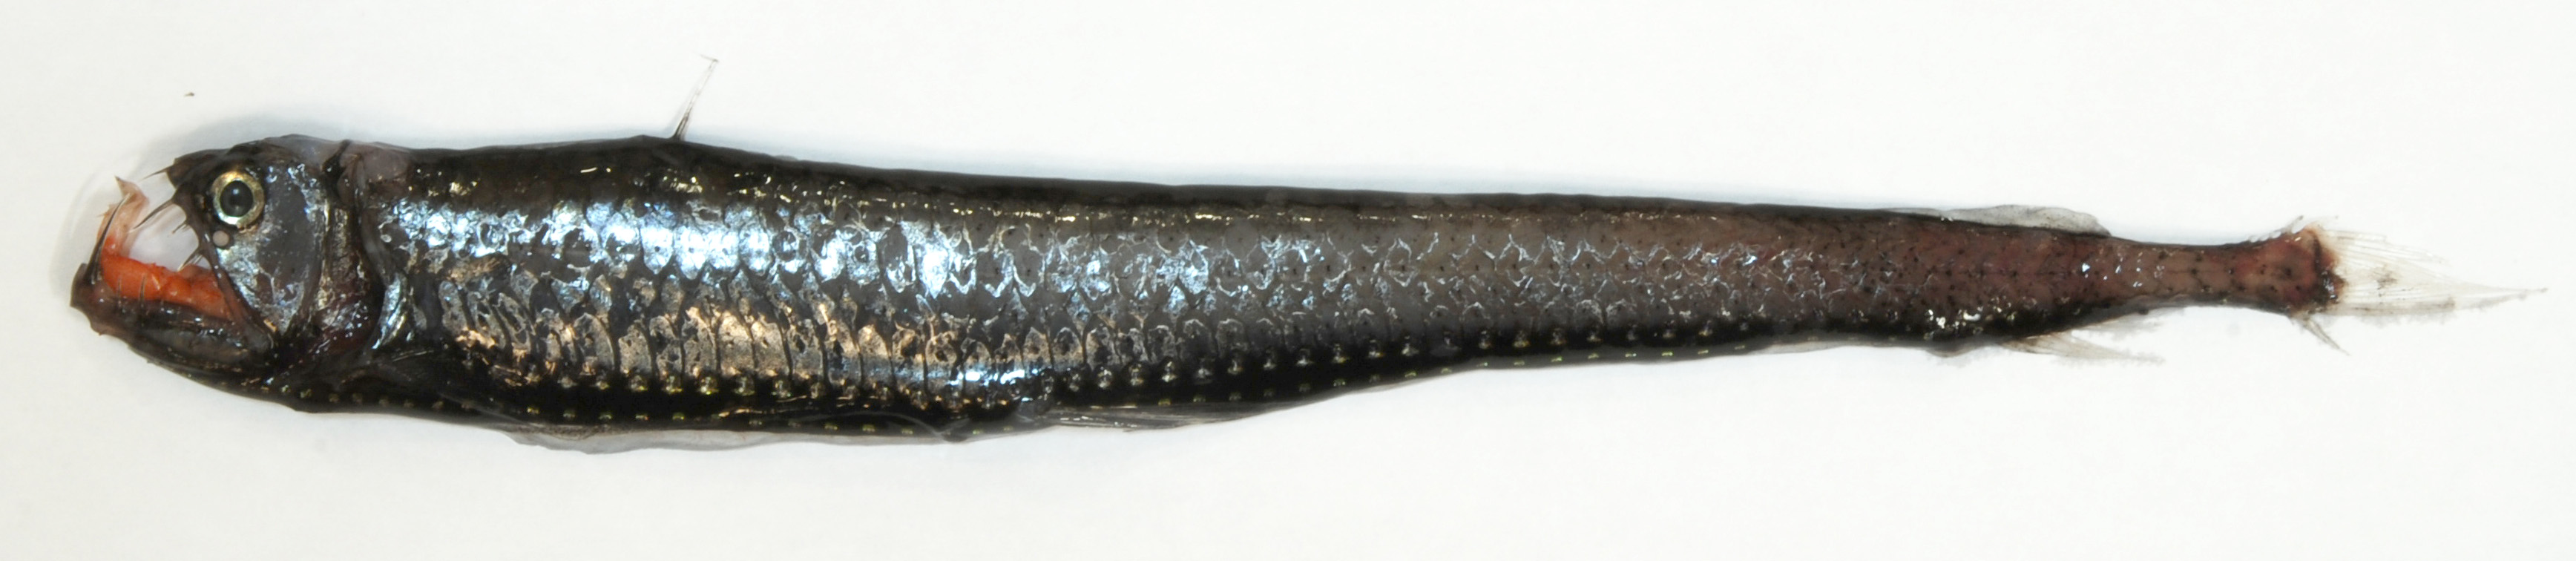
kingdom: Animalia
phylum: Chordata
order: Stomiiformes
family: Stomiidae
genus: Chauliodus
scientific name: Chauliodus sloani
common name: Dannevig's dragonfish
